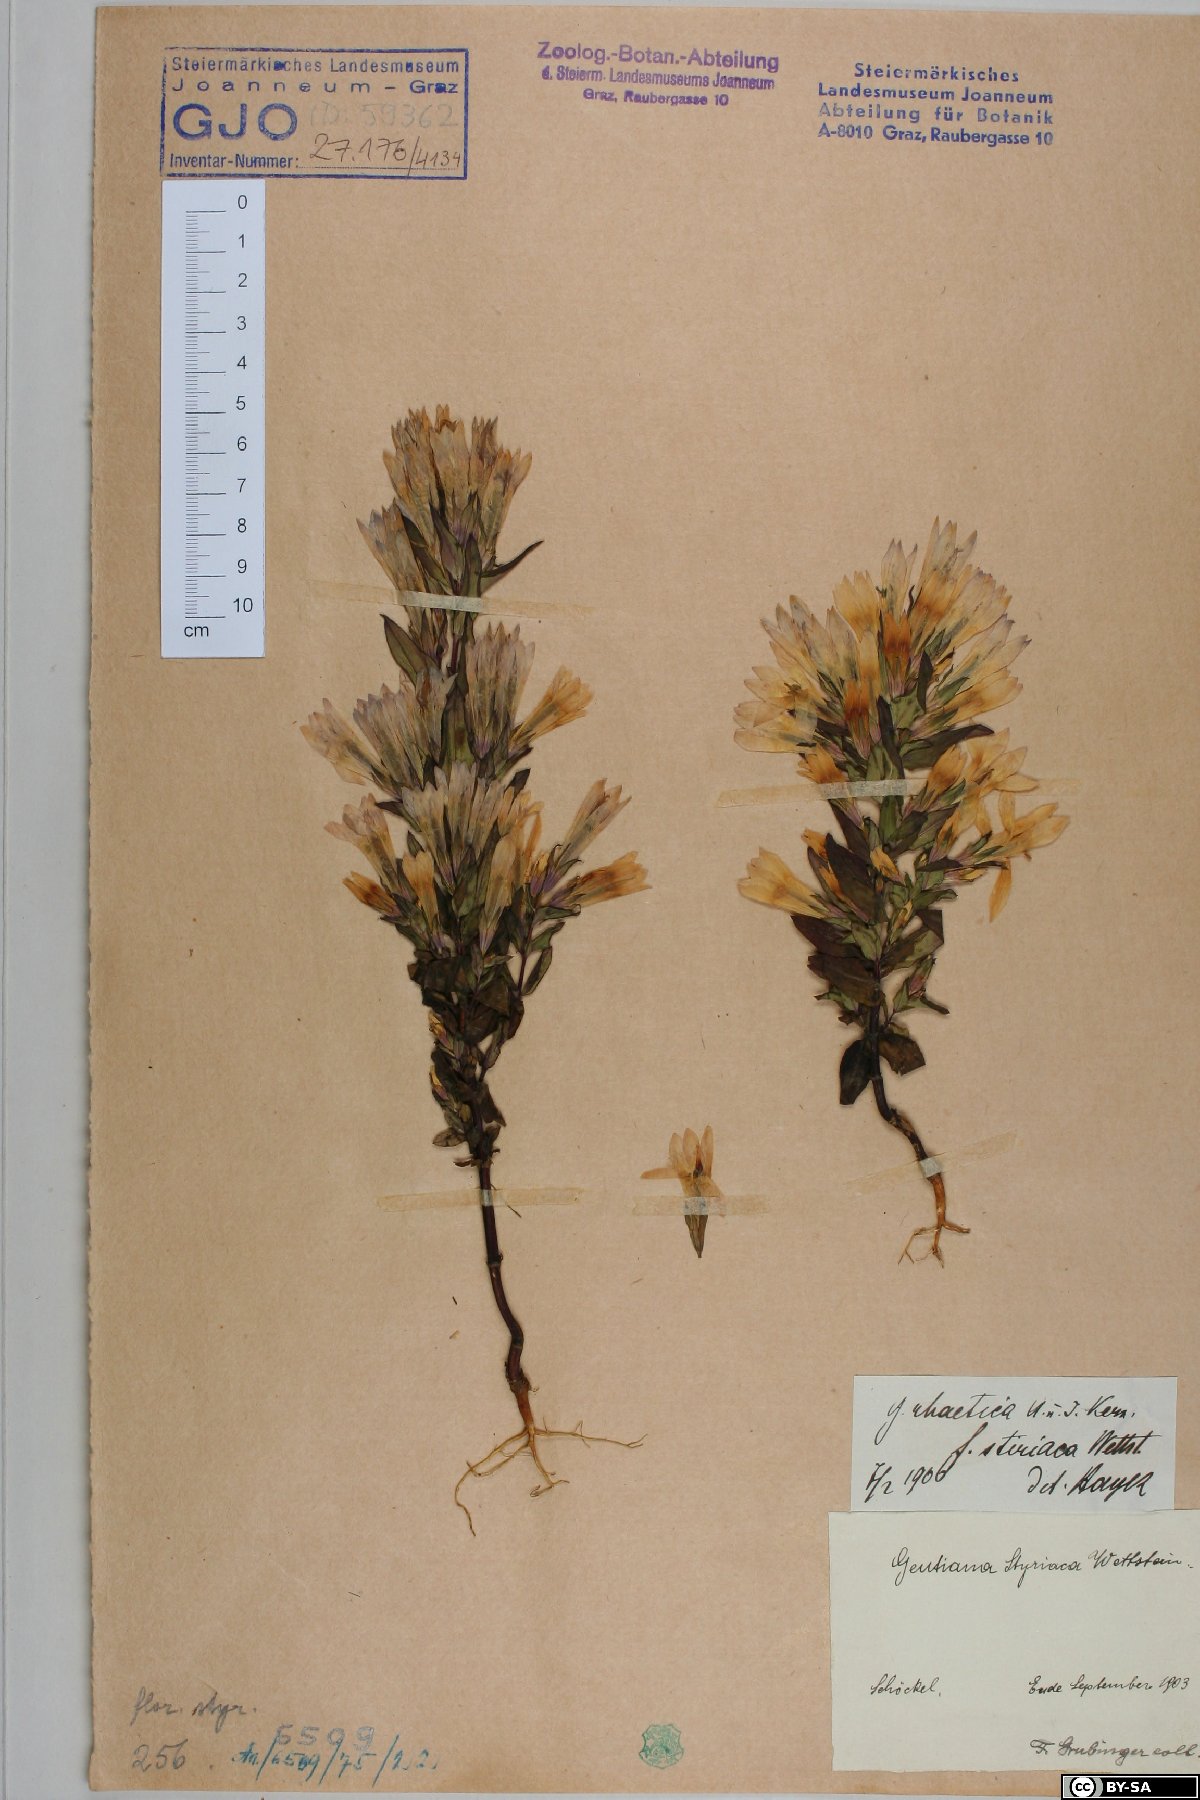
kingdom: Plantae
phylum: Tracheophyta
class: Magnoliopsida
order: Gentianales
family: Gentianaceae
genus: Gentianella
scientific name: Gentianella rhaetica
